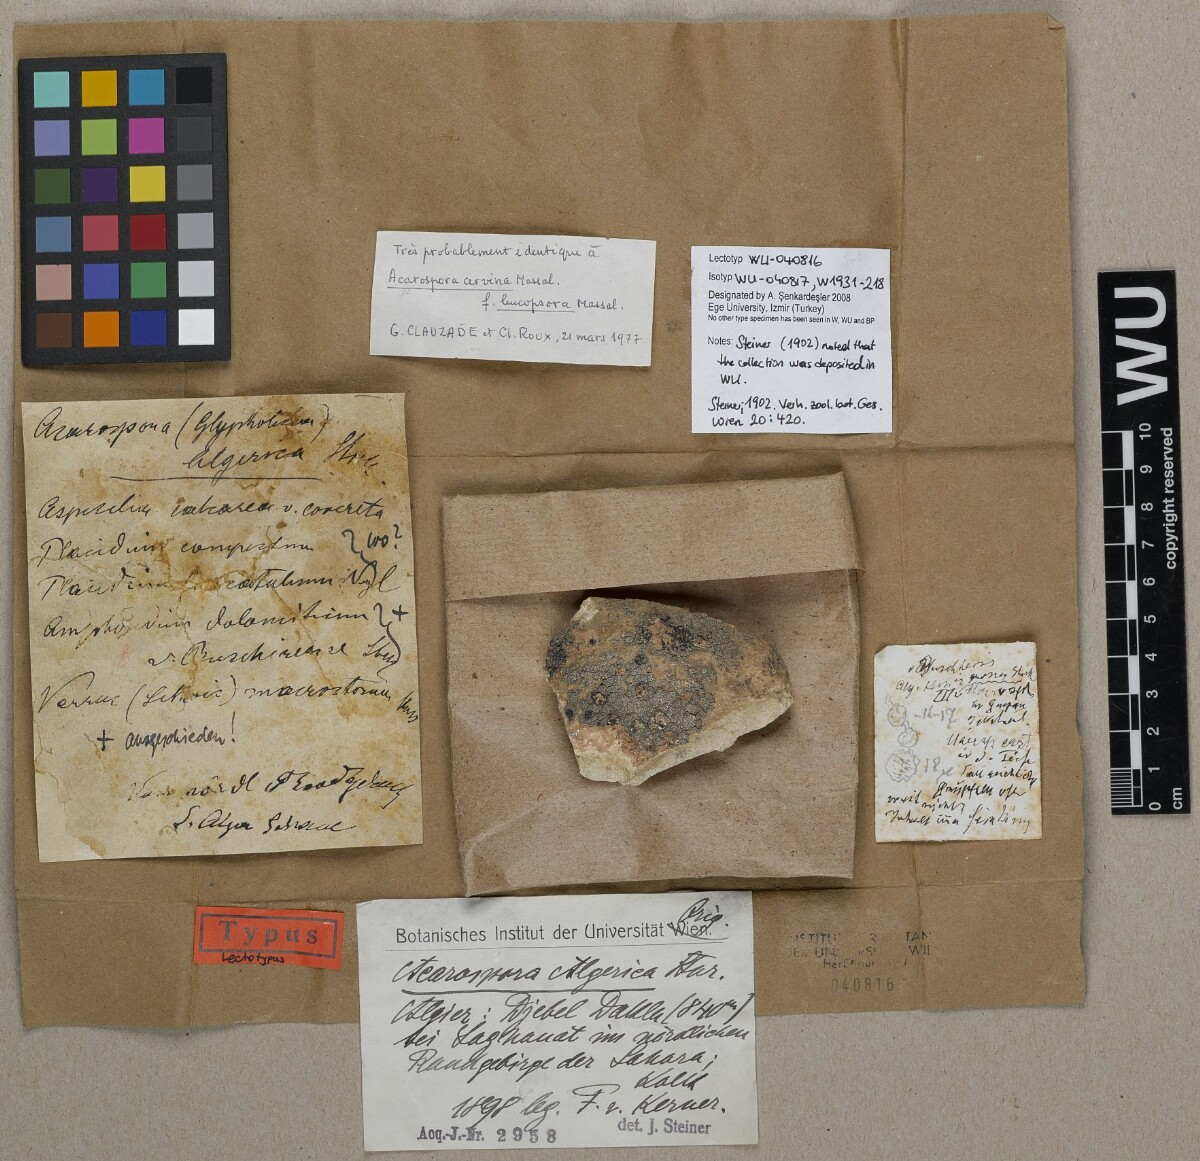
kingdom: Fungi
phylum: Ascomycota
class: Lecanoromycetes
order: Acarosporales
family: Acarosporaceae
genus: Acarospora
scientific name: Acarospora glaucocarpa
